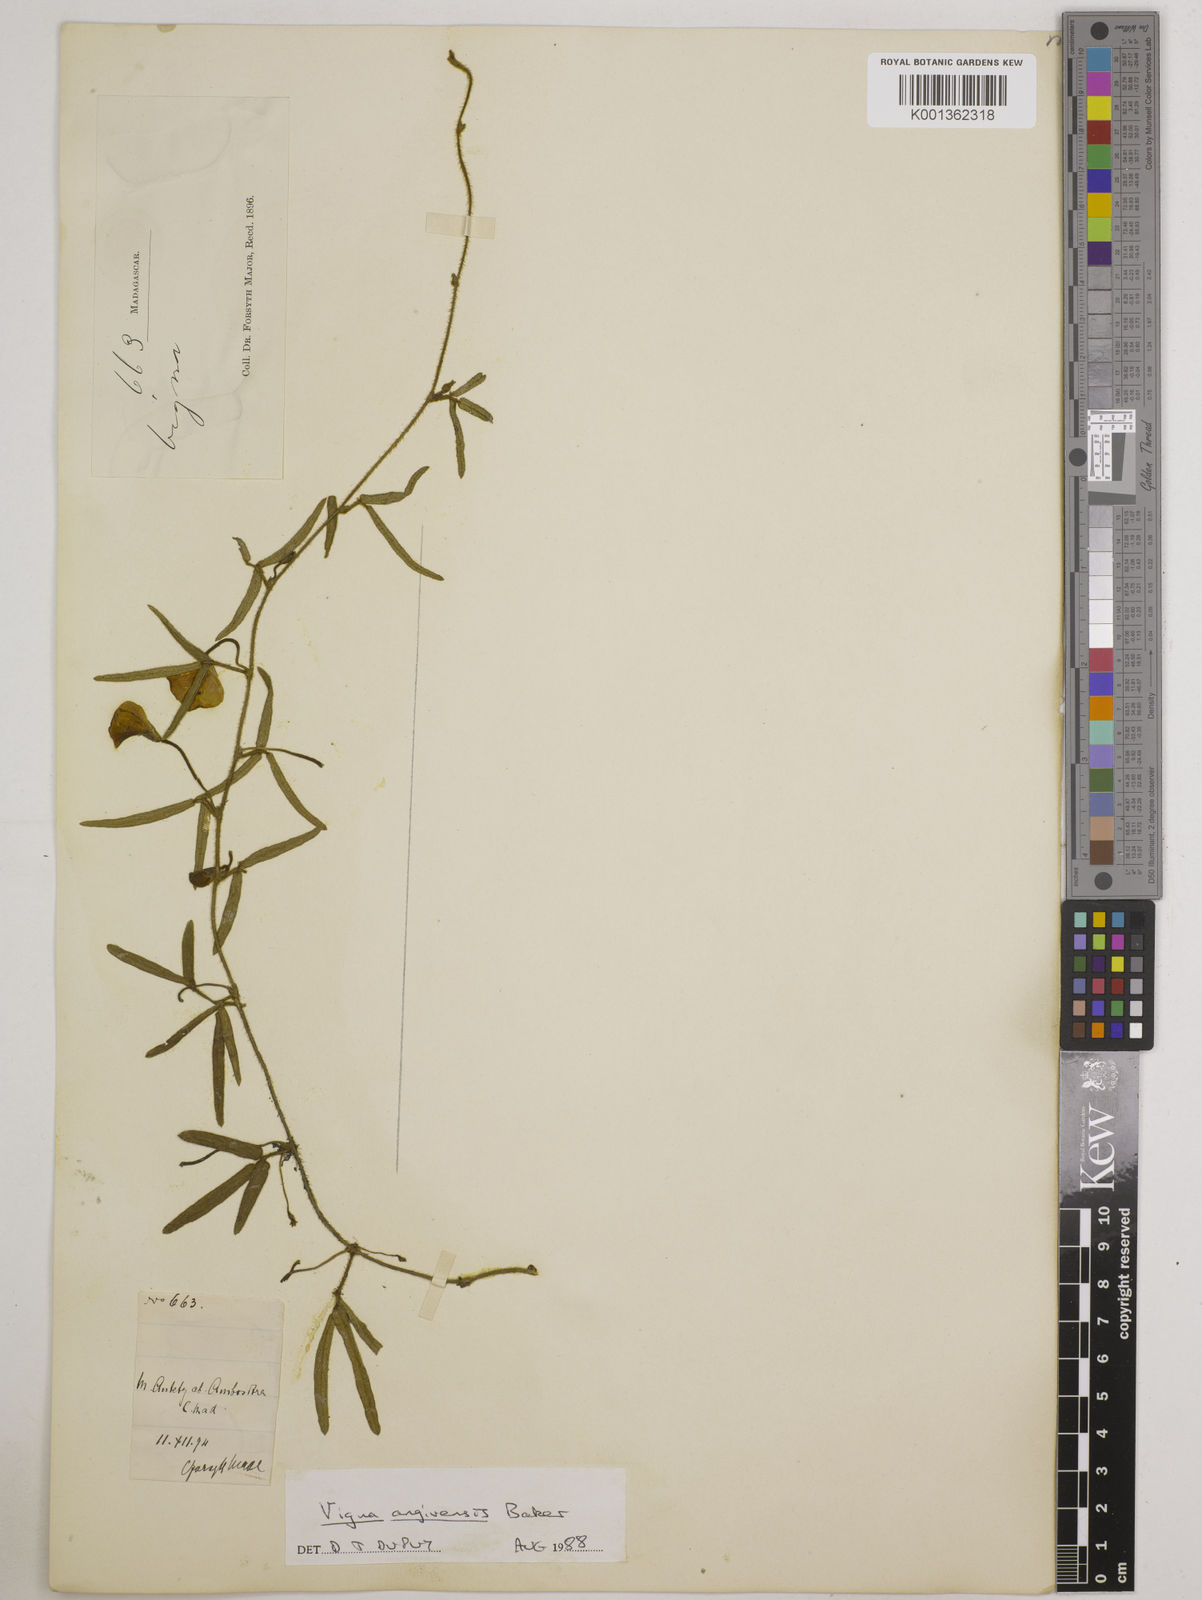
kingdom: Plantae
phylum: Tracheophyta
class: Magnoliopsida
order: Fabales
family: Fabaceae
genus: Vigna
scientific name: Vigna angivensis
